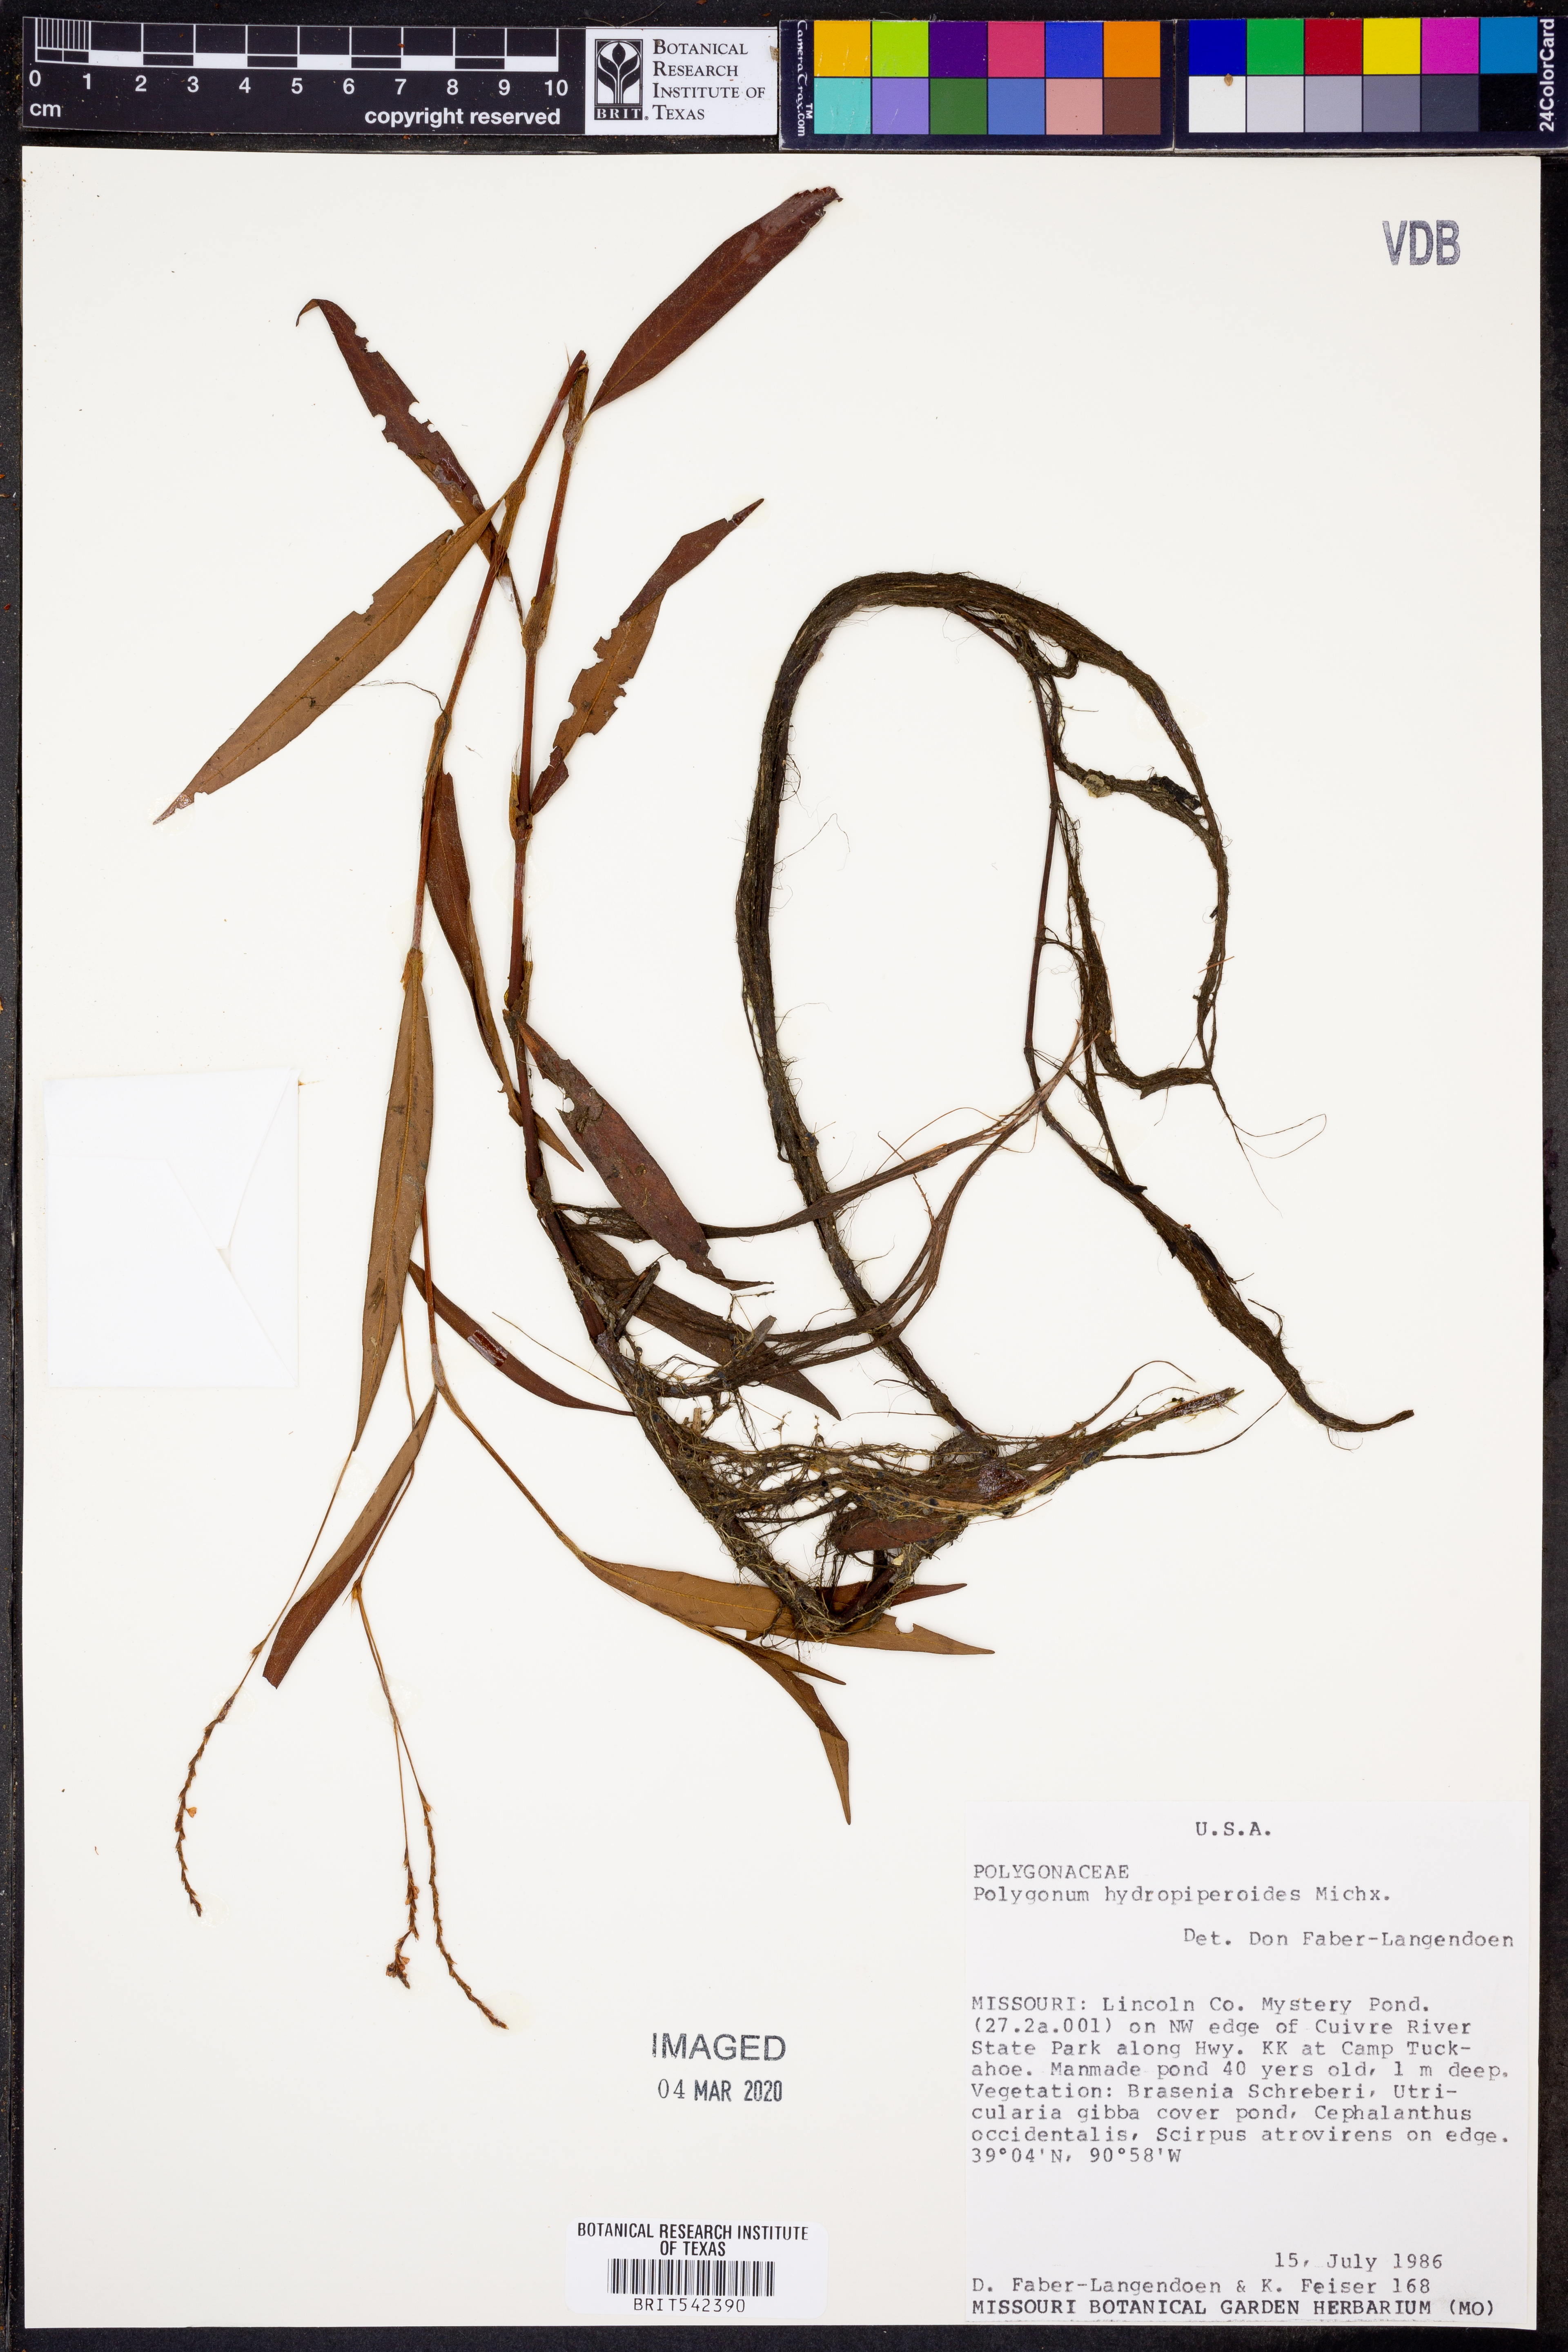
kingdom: Plantae
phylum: Tracheophyta
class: Magnoliopsida
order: Caryophyllales
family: Polygonaceae
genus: Persicaria
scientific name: Persicaria hydropiperoides
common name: Swamp smartweed
